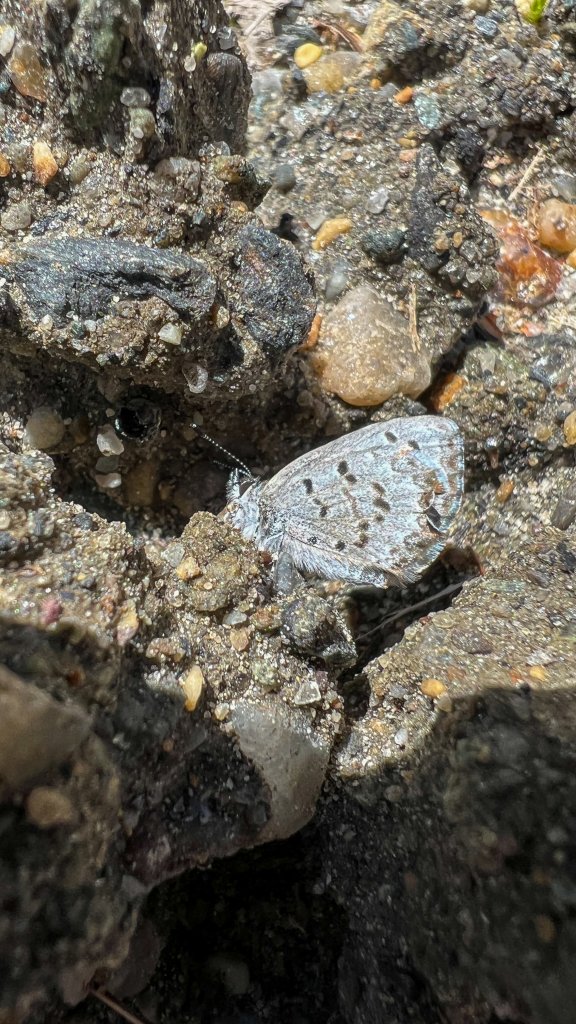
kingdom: Animalia
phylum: Arthropoda
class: Insecta
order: Lepidoptera
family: Lycaenidae
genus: Celastrina
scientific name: Celastrina lucia
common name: Northern Spring Azure
